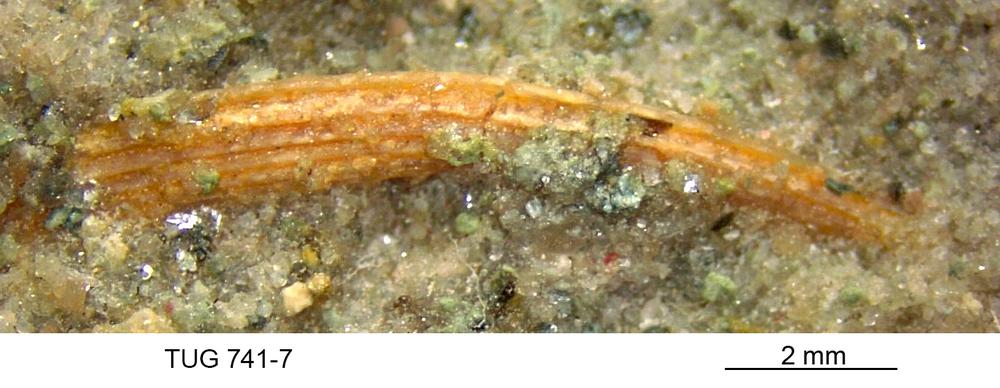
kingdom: Animalia
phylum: Chordata
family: Acanthodidae
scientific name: Acanthodidae
